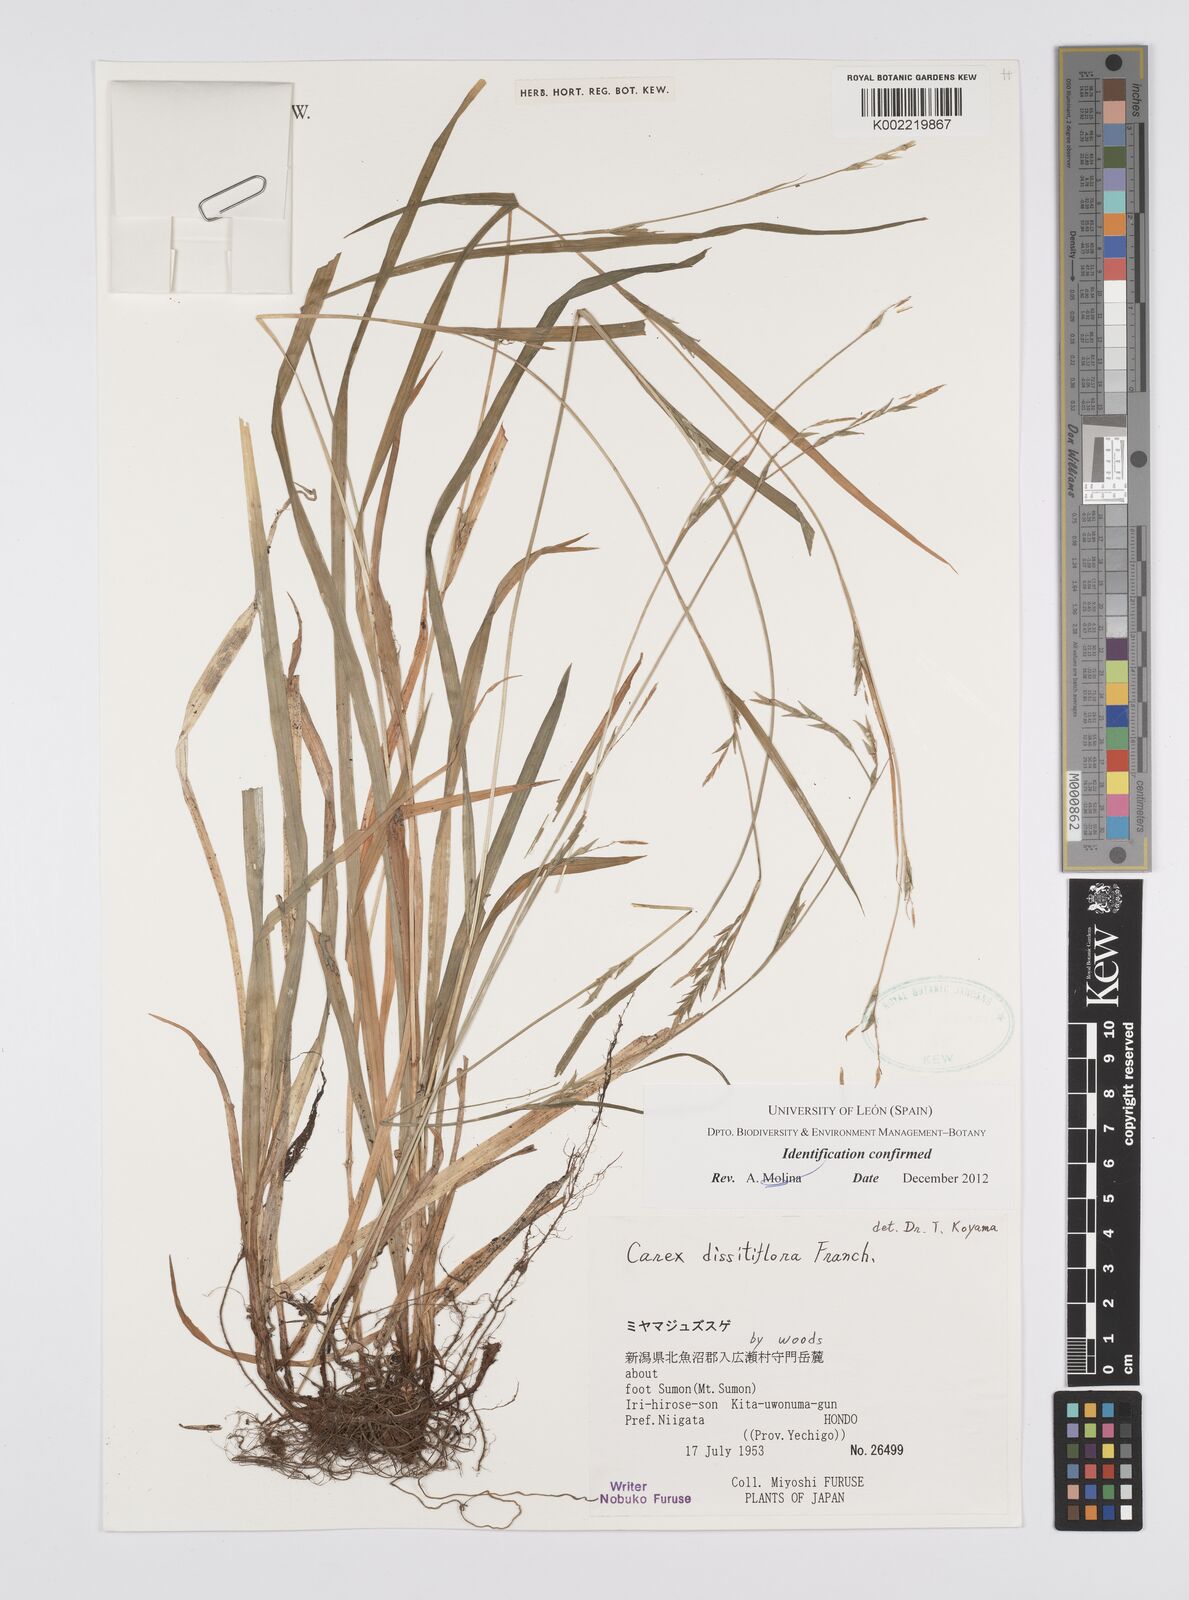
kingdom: Plantae
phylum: Tracheophyta
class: Liliopsida
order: Poales
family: Cyperaceae
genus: Carex
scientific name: Carex dissitiflora
